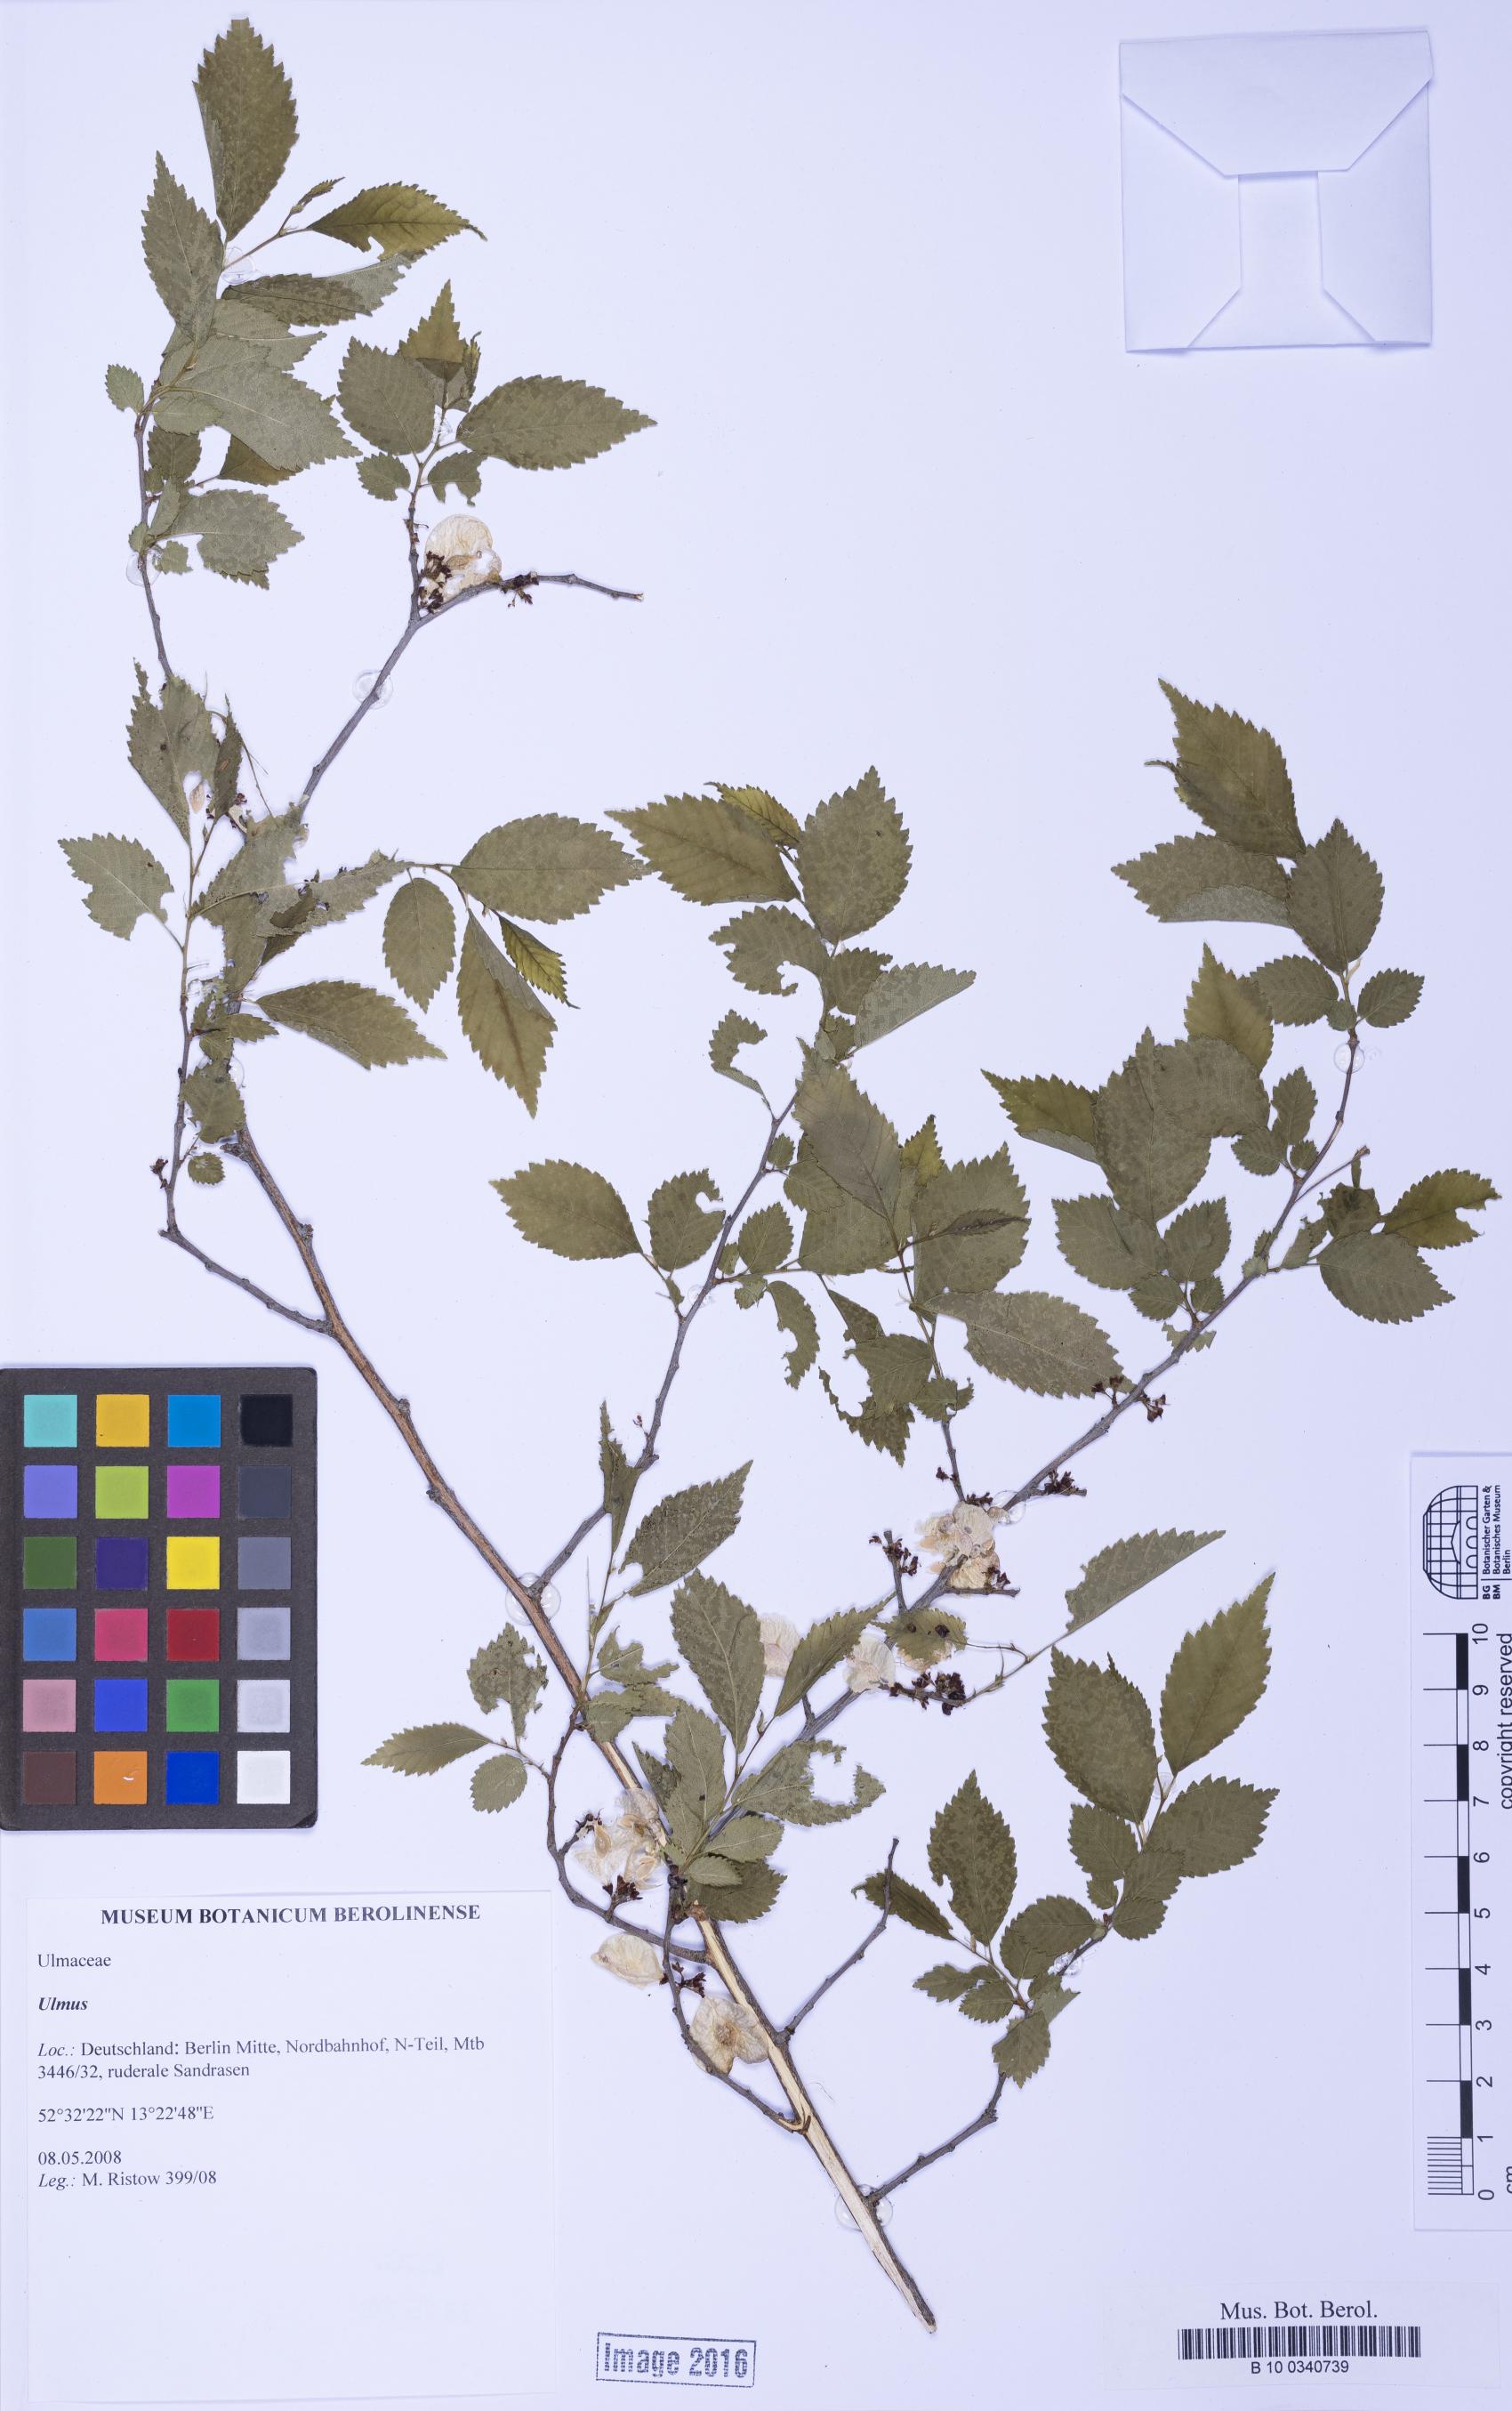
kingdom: Plantae
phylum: Tracheophyta
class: Magnoliopsida
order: Rosales
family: Ulmaceae
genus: Ulmus
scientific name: Ulmus
